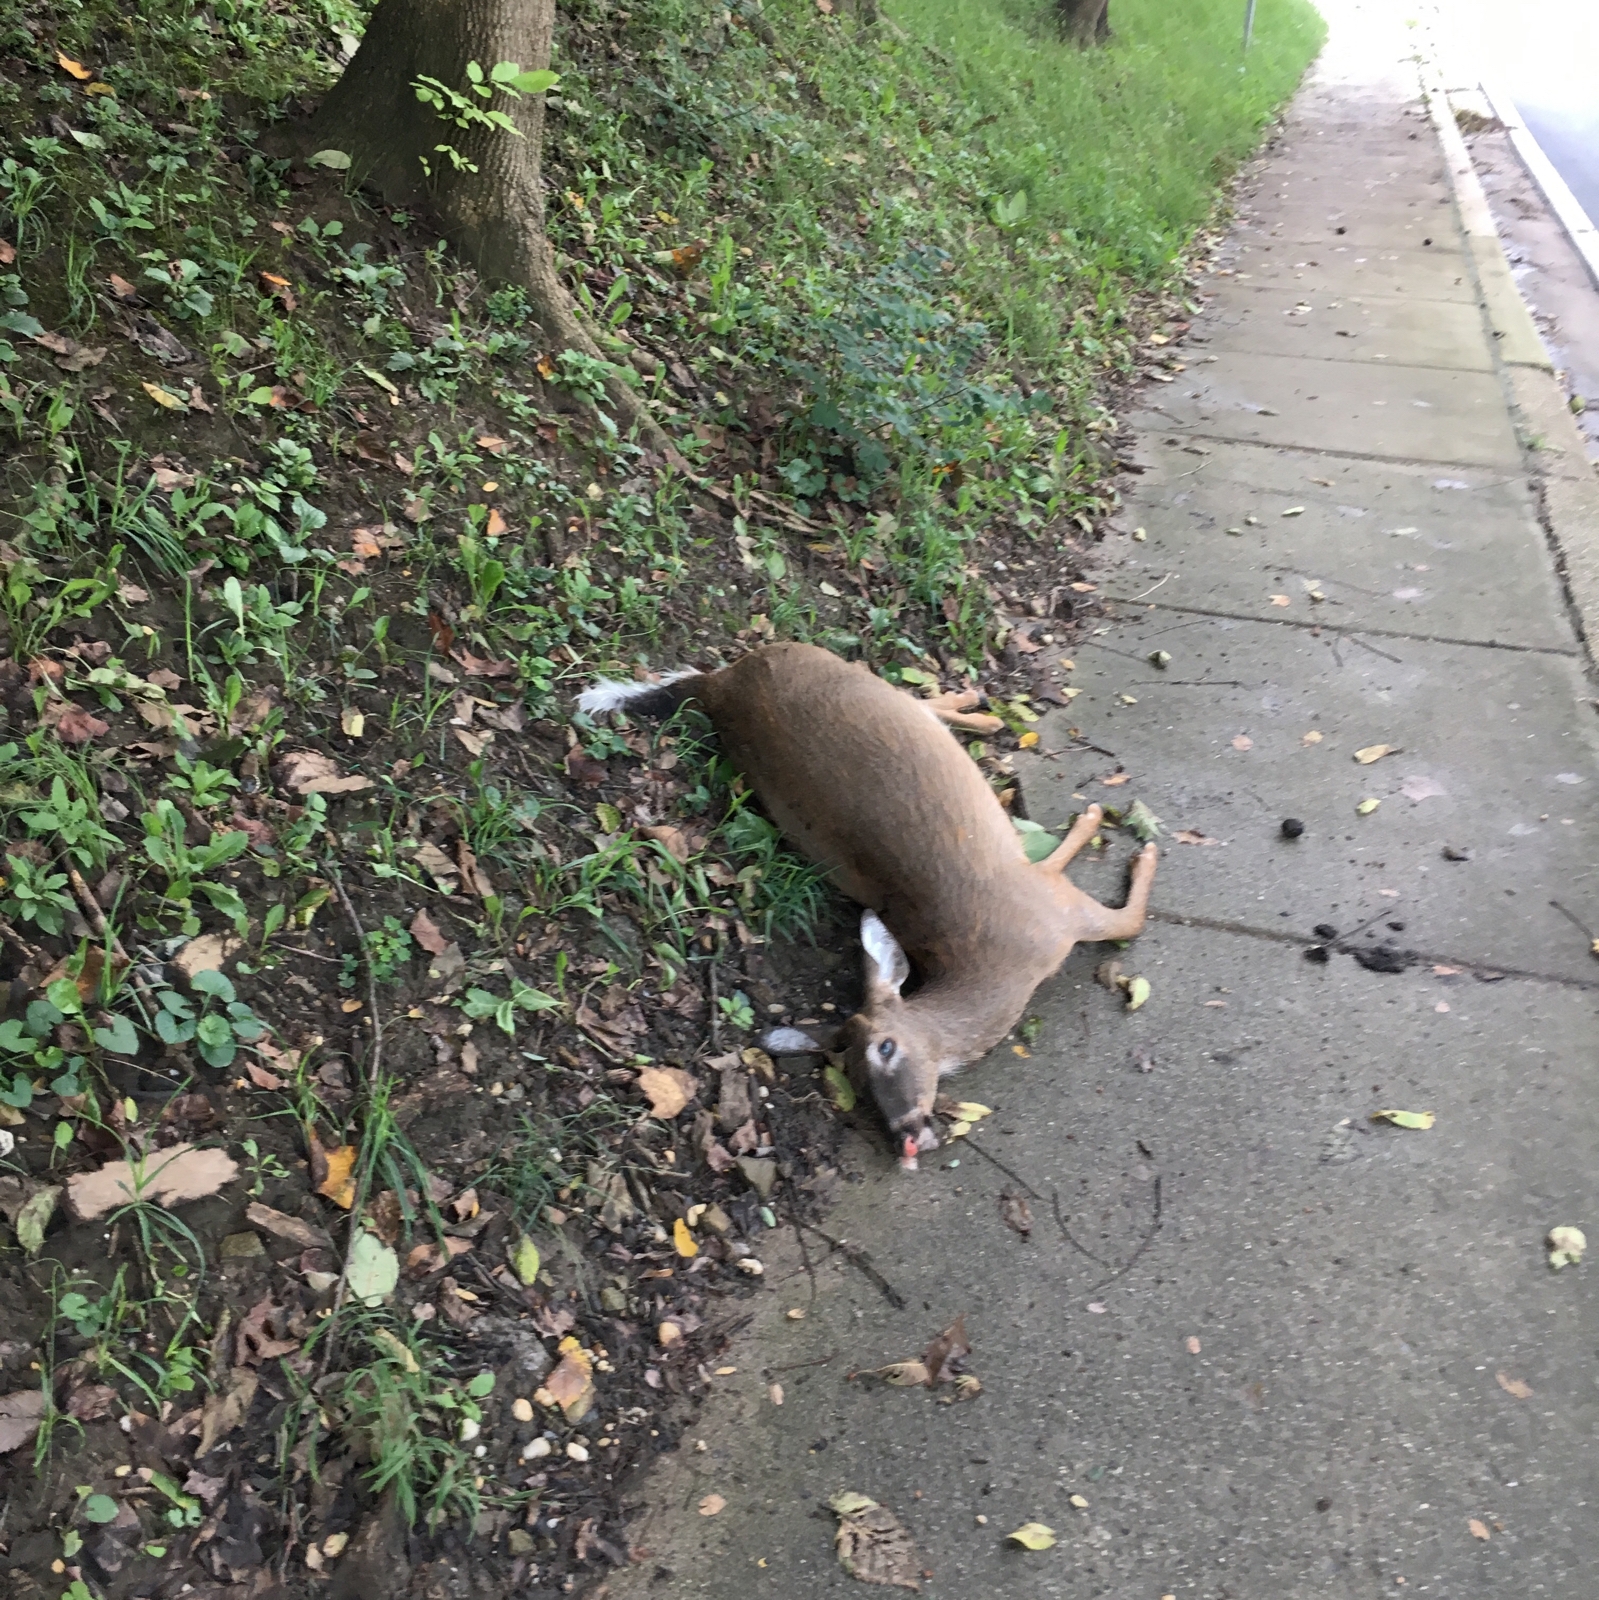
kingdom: Animalia
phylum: Chordata
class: Mammalia
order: Artiodactyla
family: Cervidae
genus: Odocoileus
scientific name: Odocoileus virginianus
